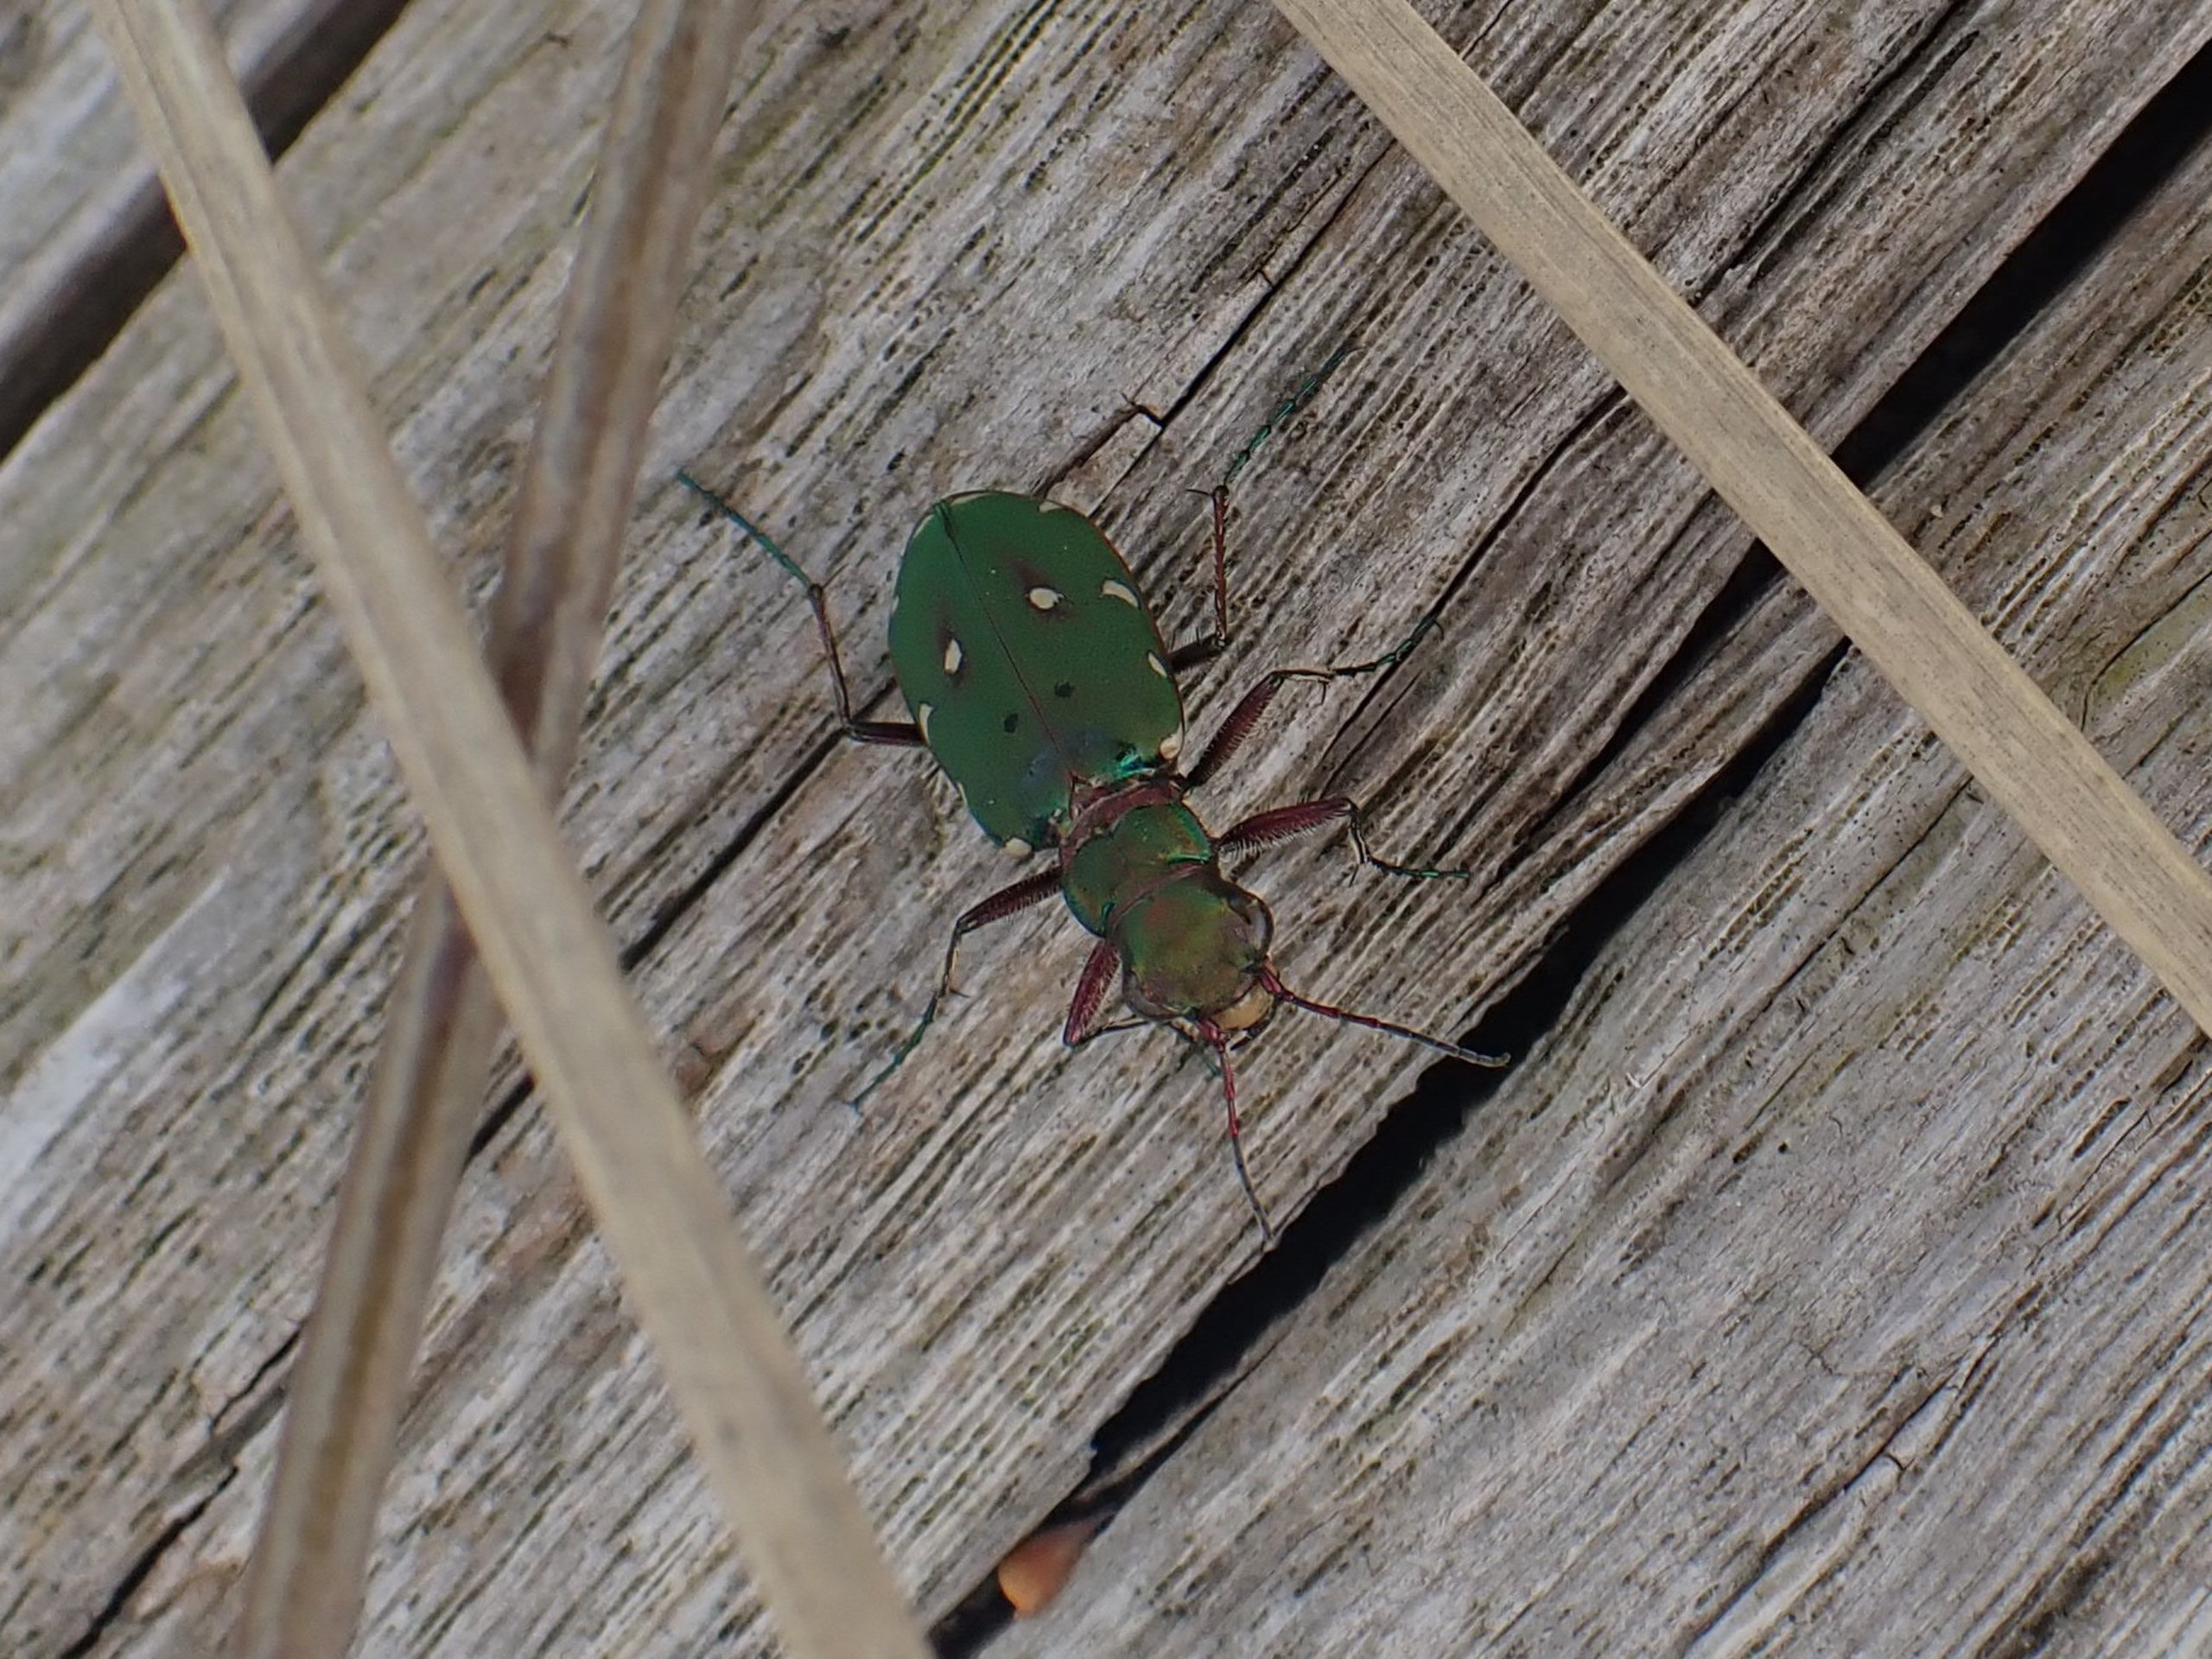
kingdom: Animalia
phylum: Arthropoda
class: Insecta
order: Coleoptera
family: Carabidae
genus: Cicindela
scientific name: Cicindela campestris
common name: Grøn sandspringer
